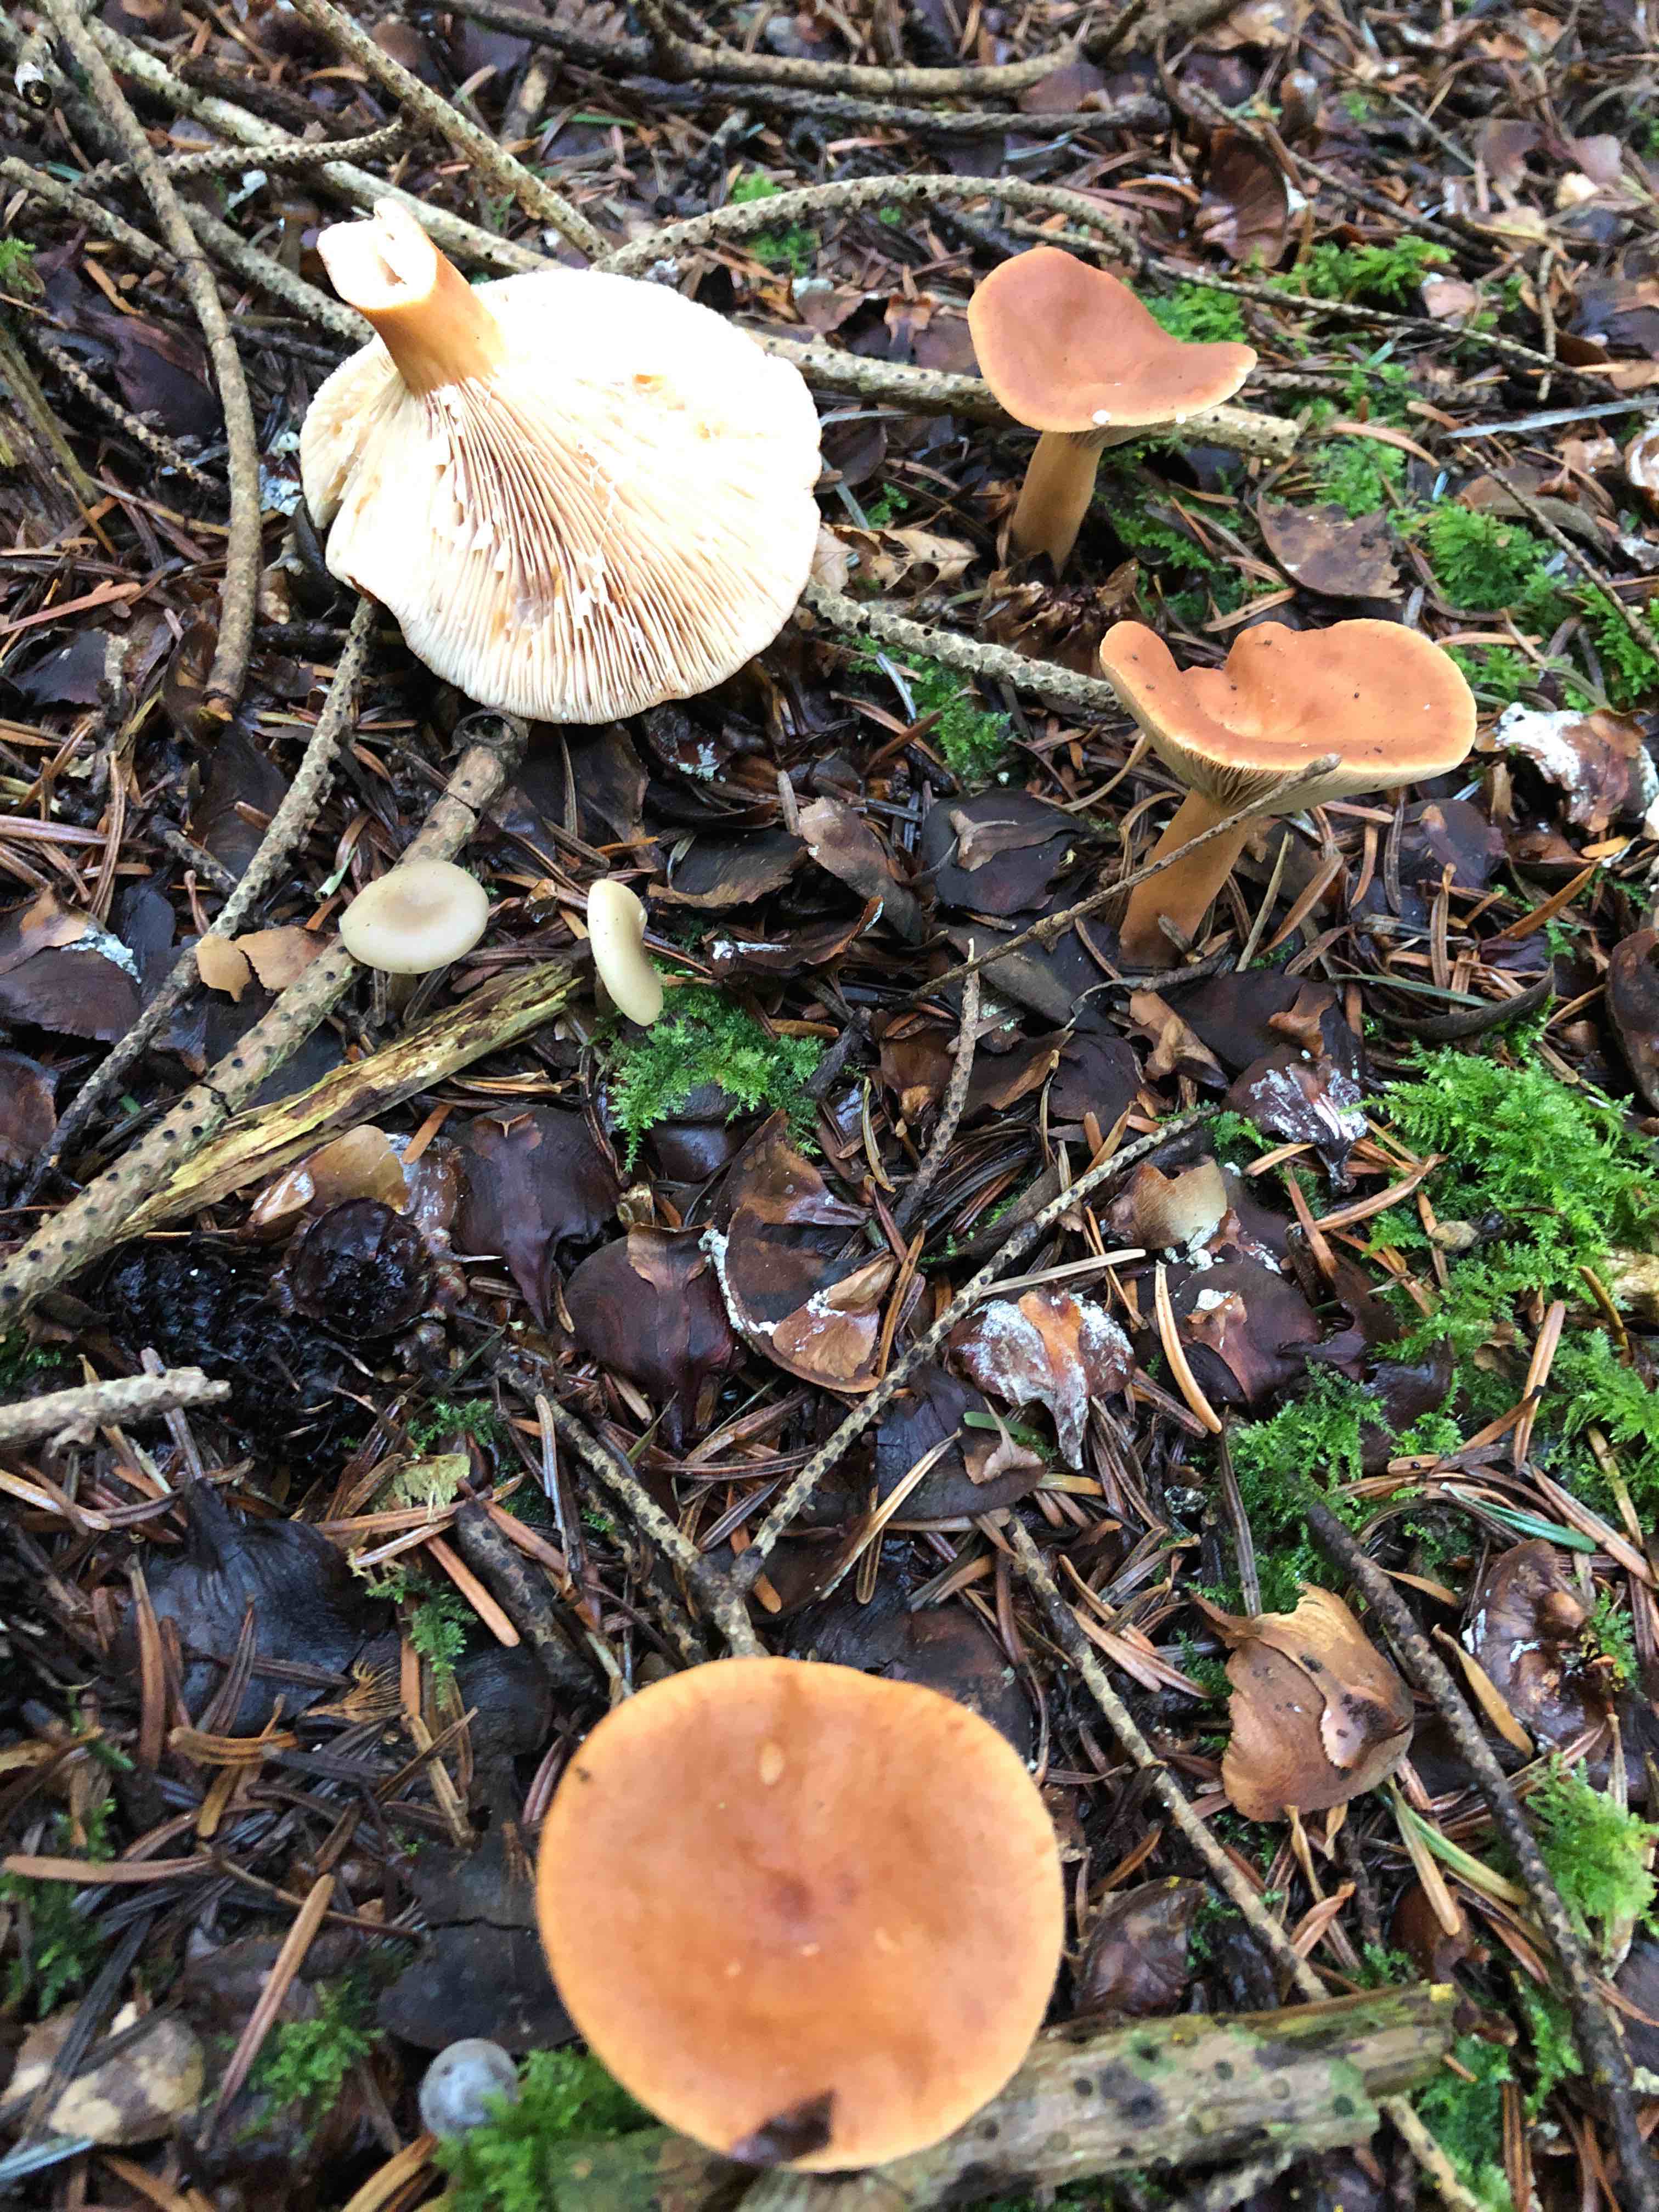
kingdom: Fungi
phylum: Basidiomycota
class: Agaricomycetes
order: Russulales
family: Russulaceae
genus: Lactarius
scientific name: Lactarius
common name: mælkehat
